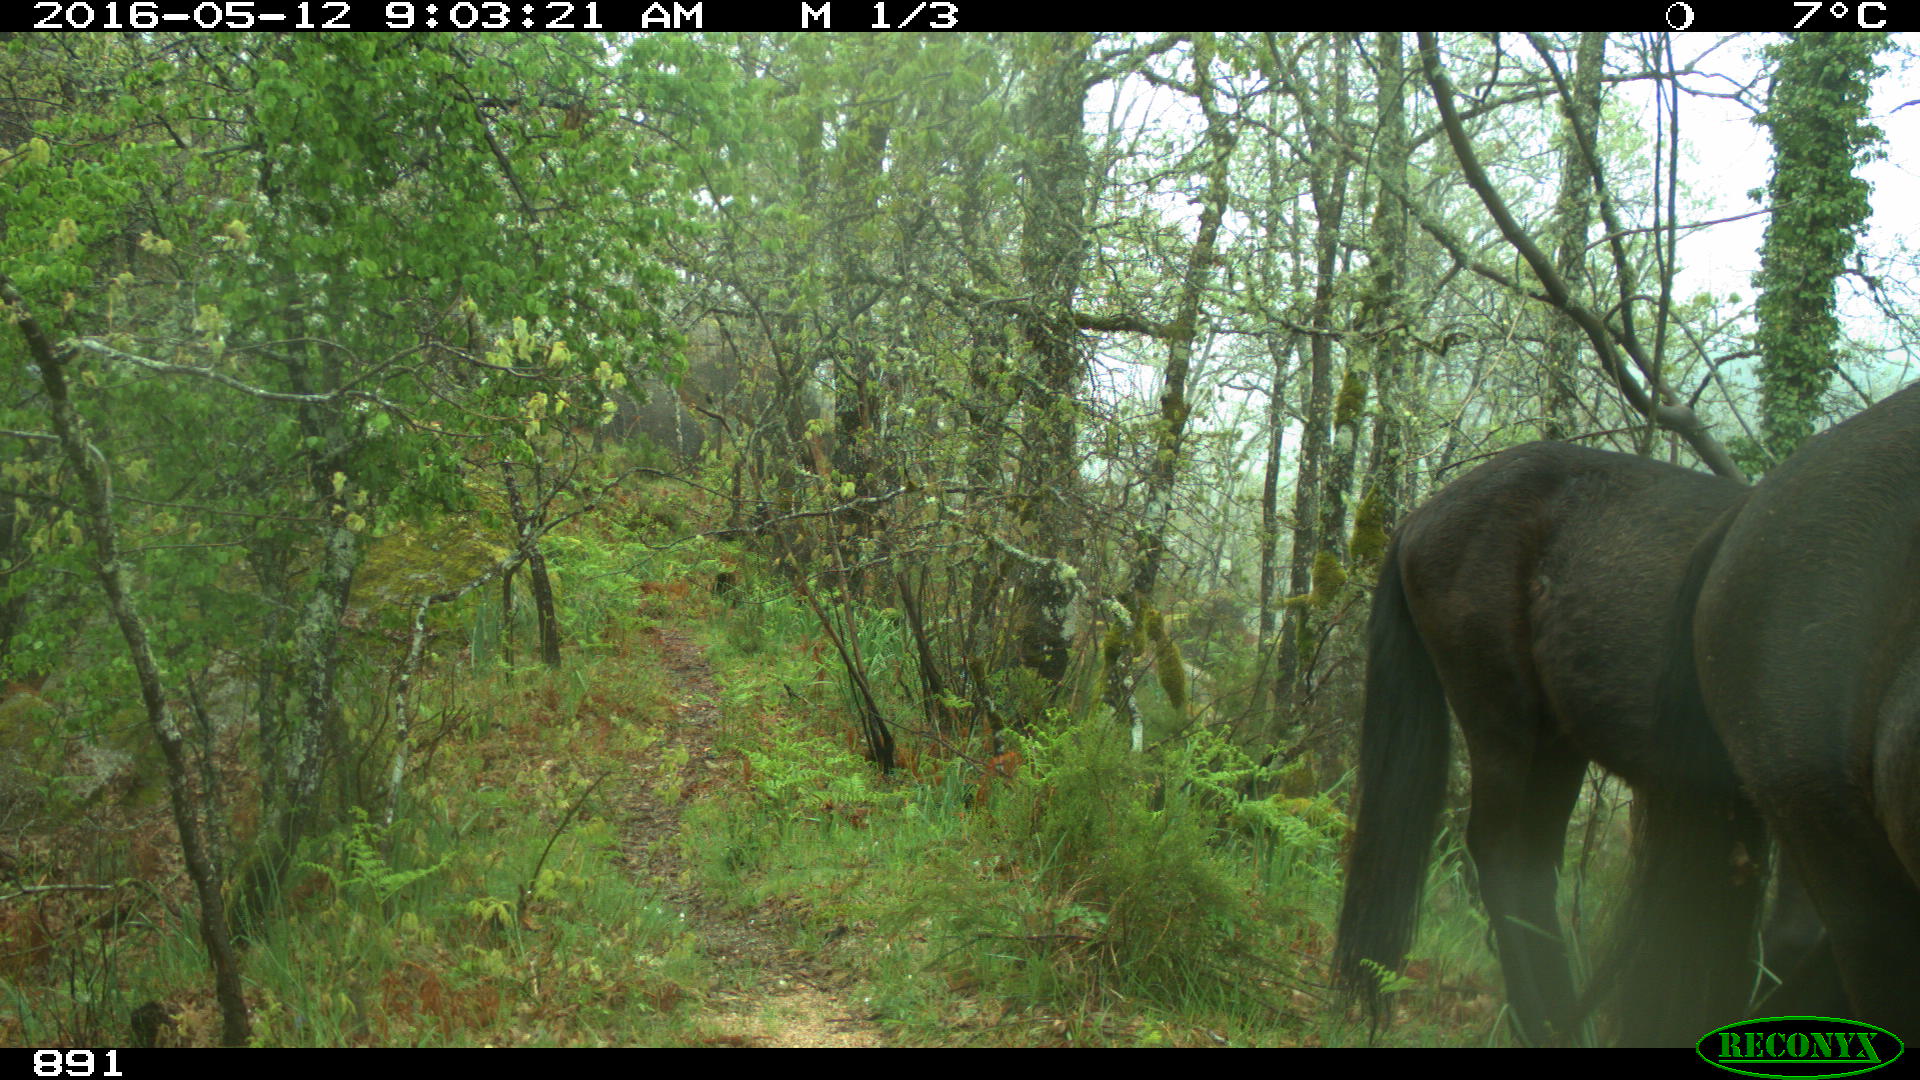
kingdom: Animalia
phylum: Chordata
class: Mammalia
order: Perissodactyla
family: Equidae
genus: Equus
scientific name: Equus caballus
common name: Horse
